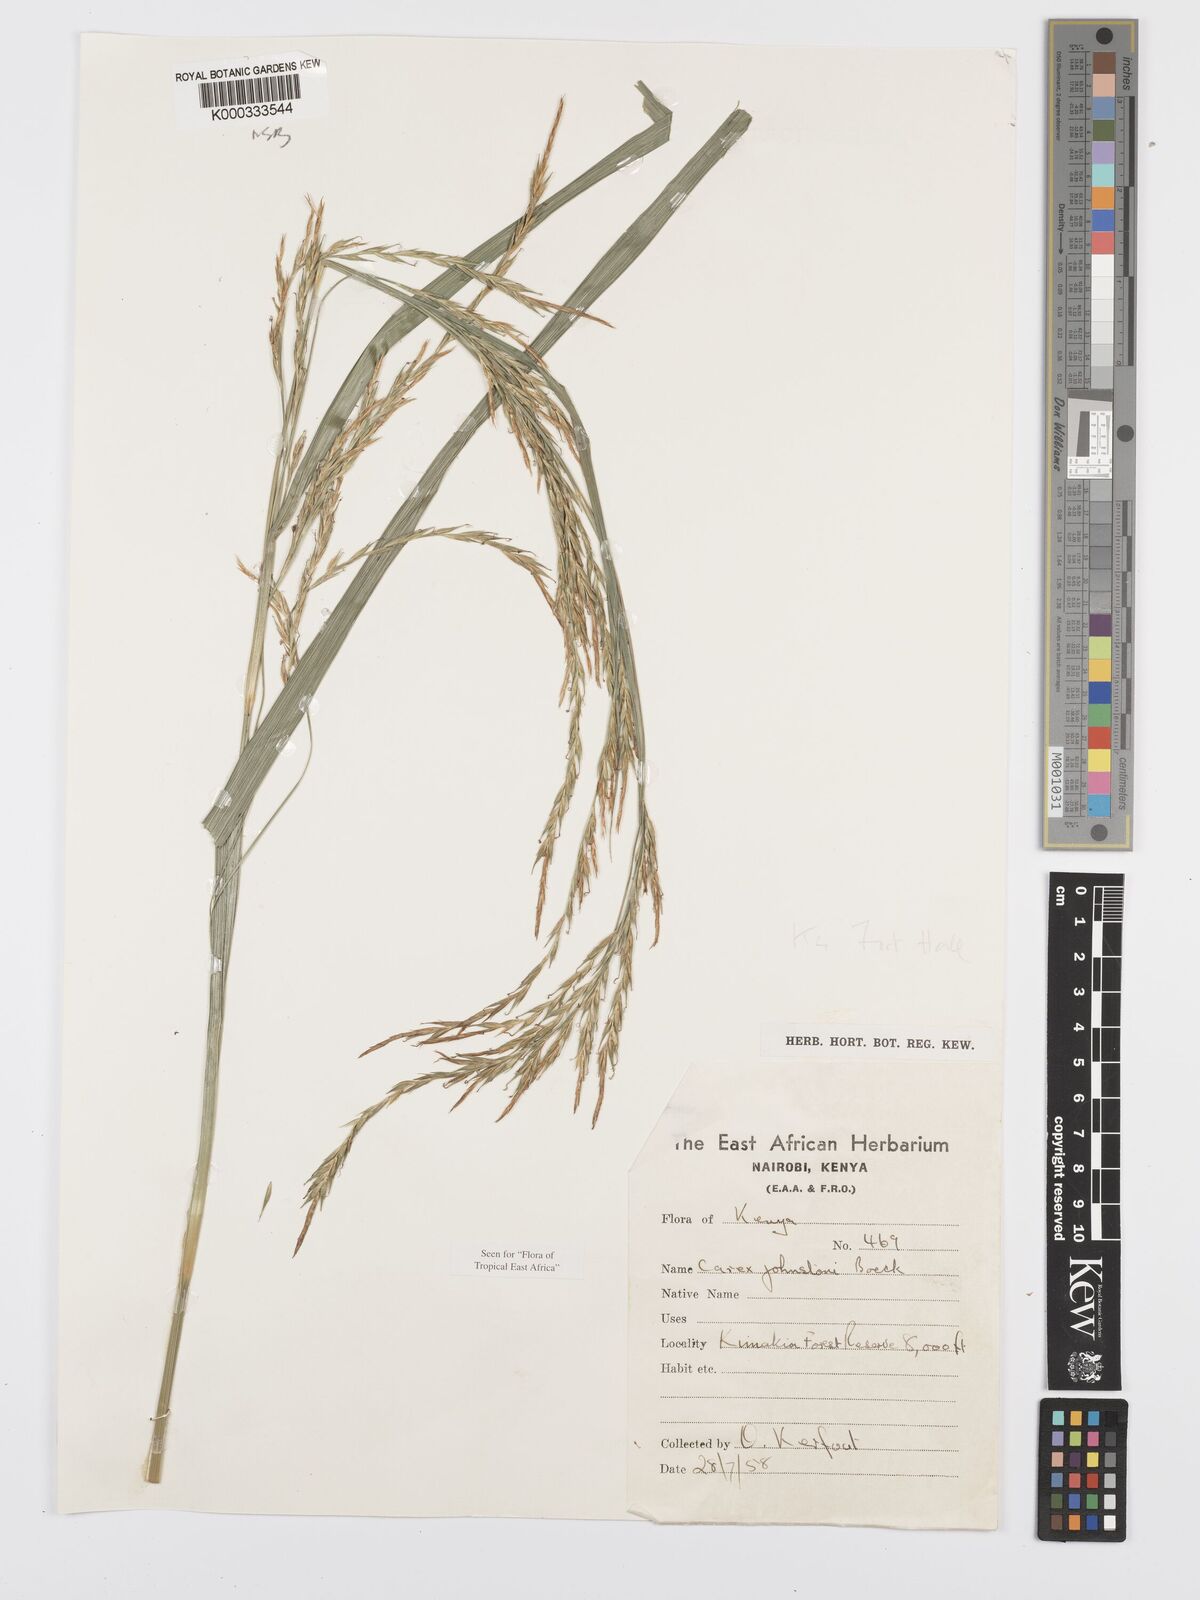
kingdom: Plantae
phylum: Tracheophyta
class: Liliopsida
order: Poales
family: Cyperaceae
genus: Carex
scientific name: Carex johnstonii
